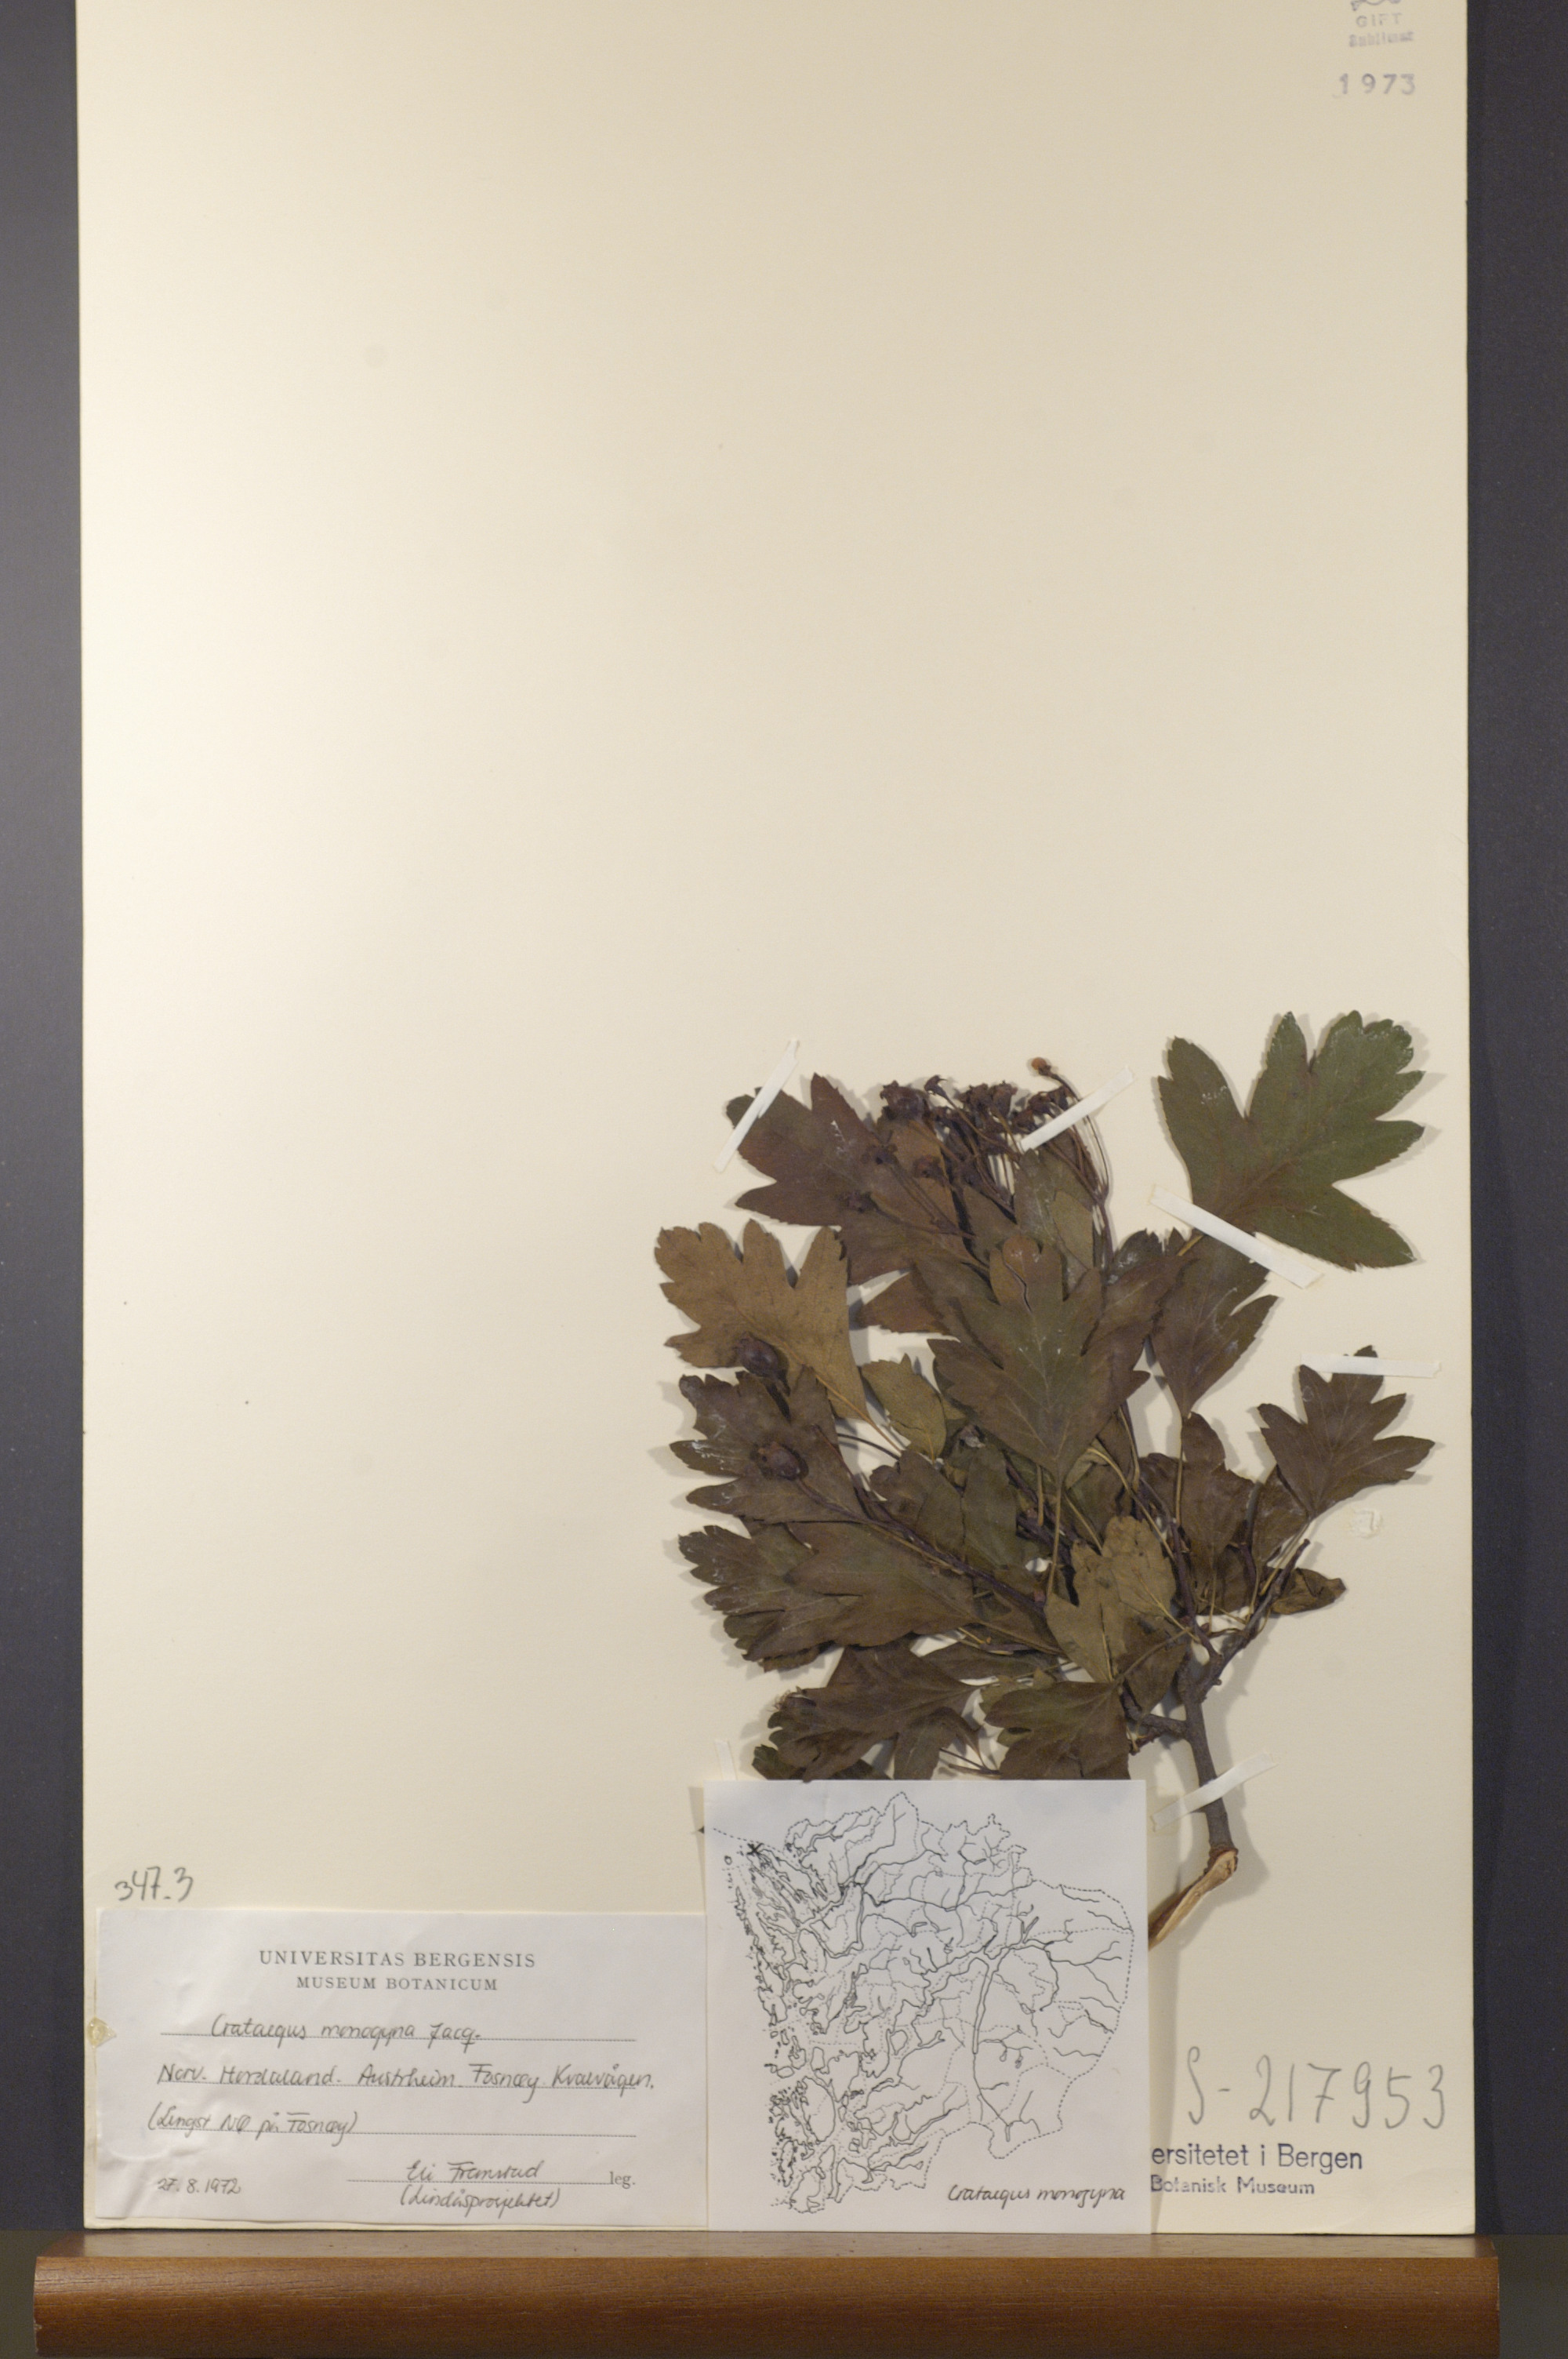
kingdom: Plantae
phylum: Tracheophyta
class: Magnoliopsida
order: Rosales
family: Rosaceae
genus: Crataegus
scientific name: Crataegus monogyna
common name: Hawthorn
